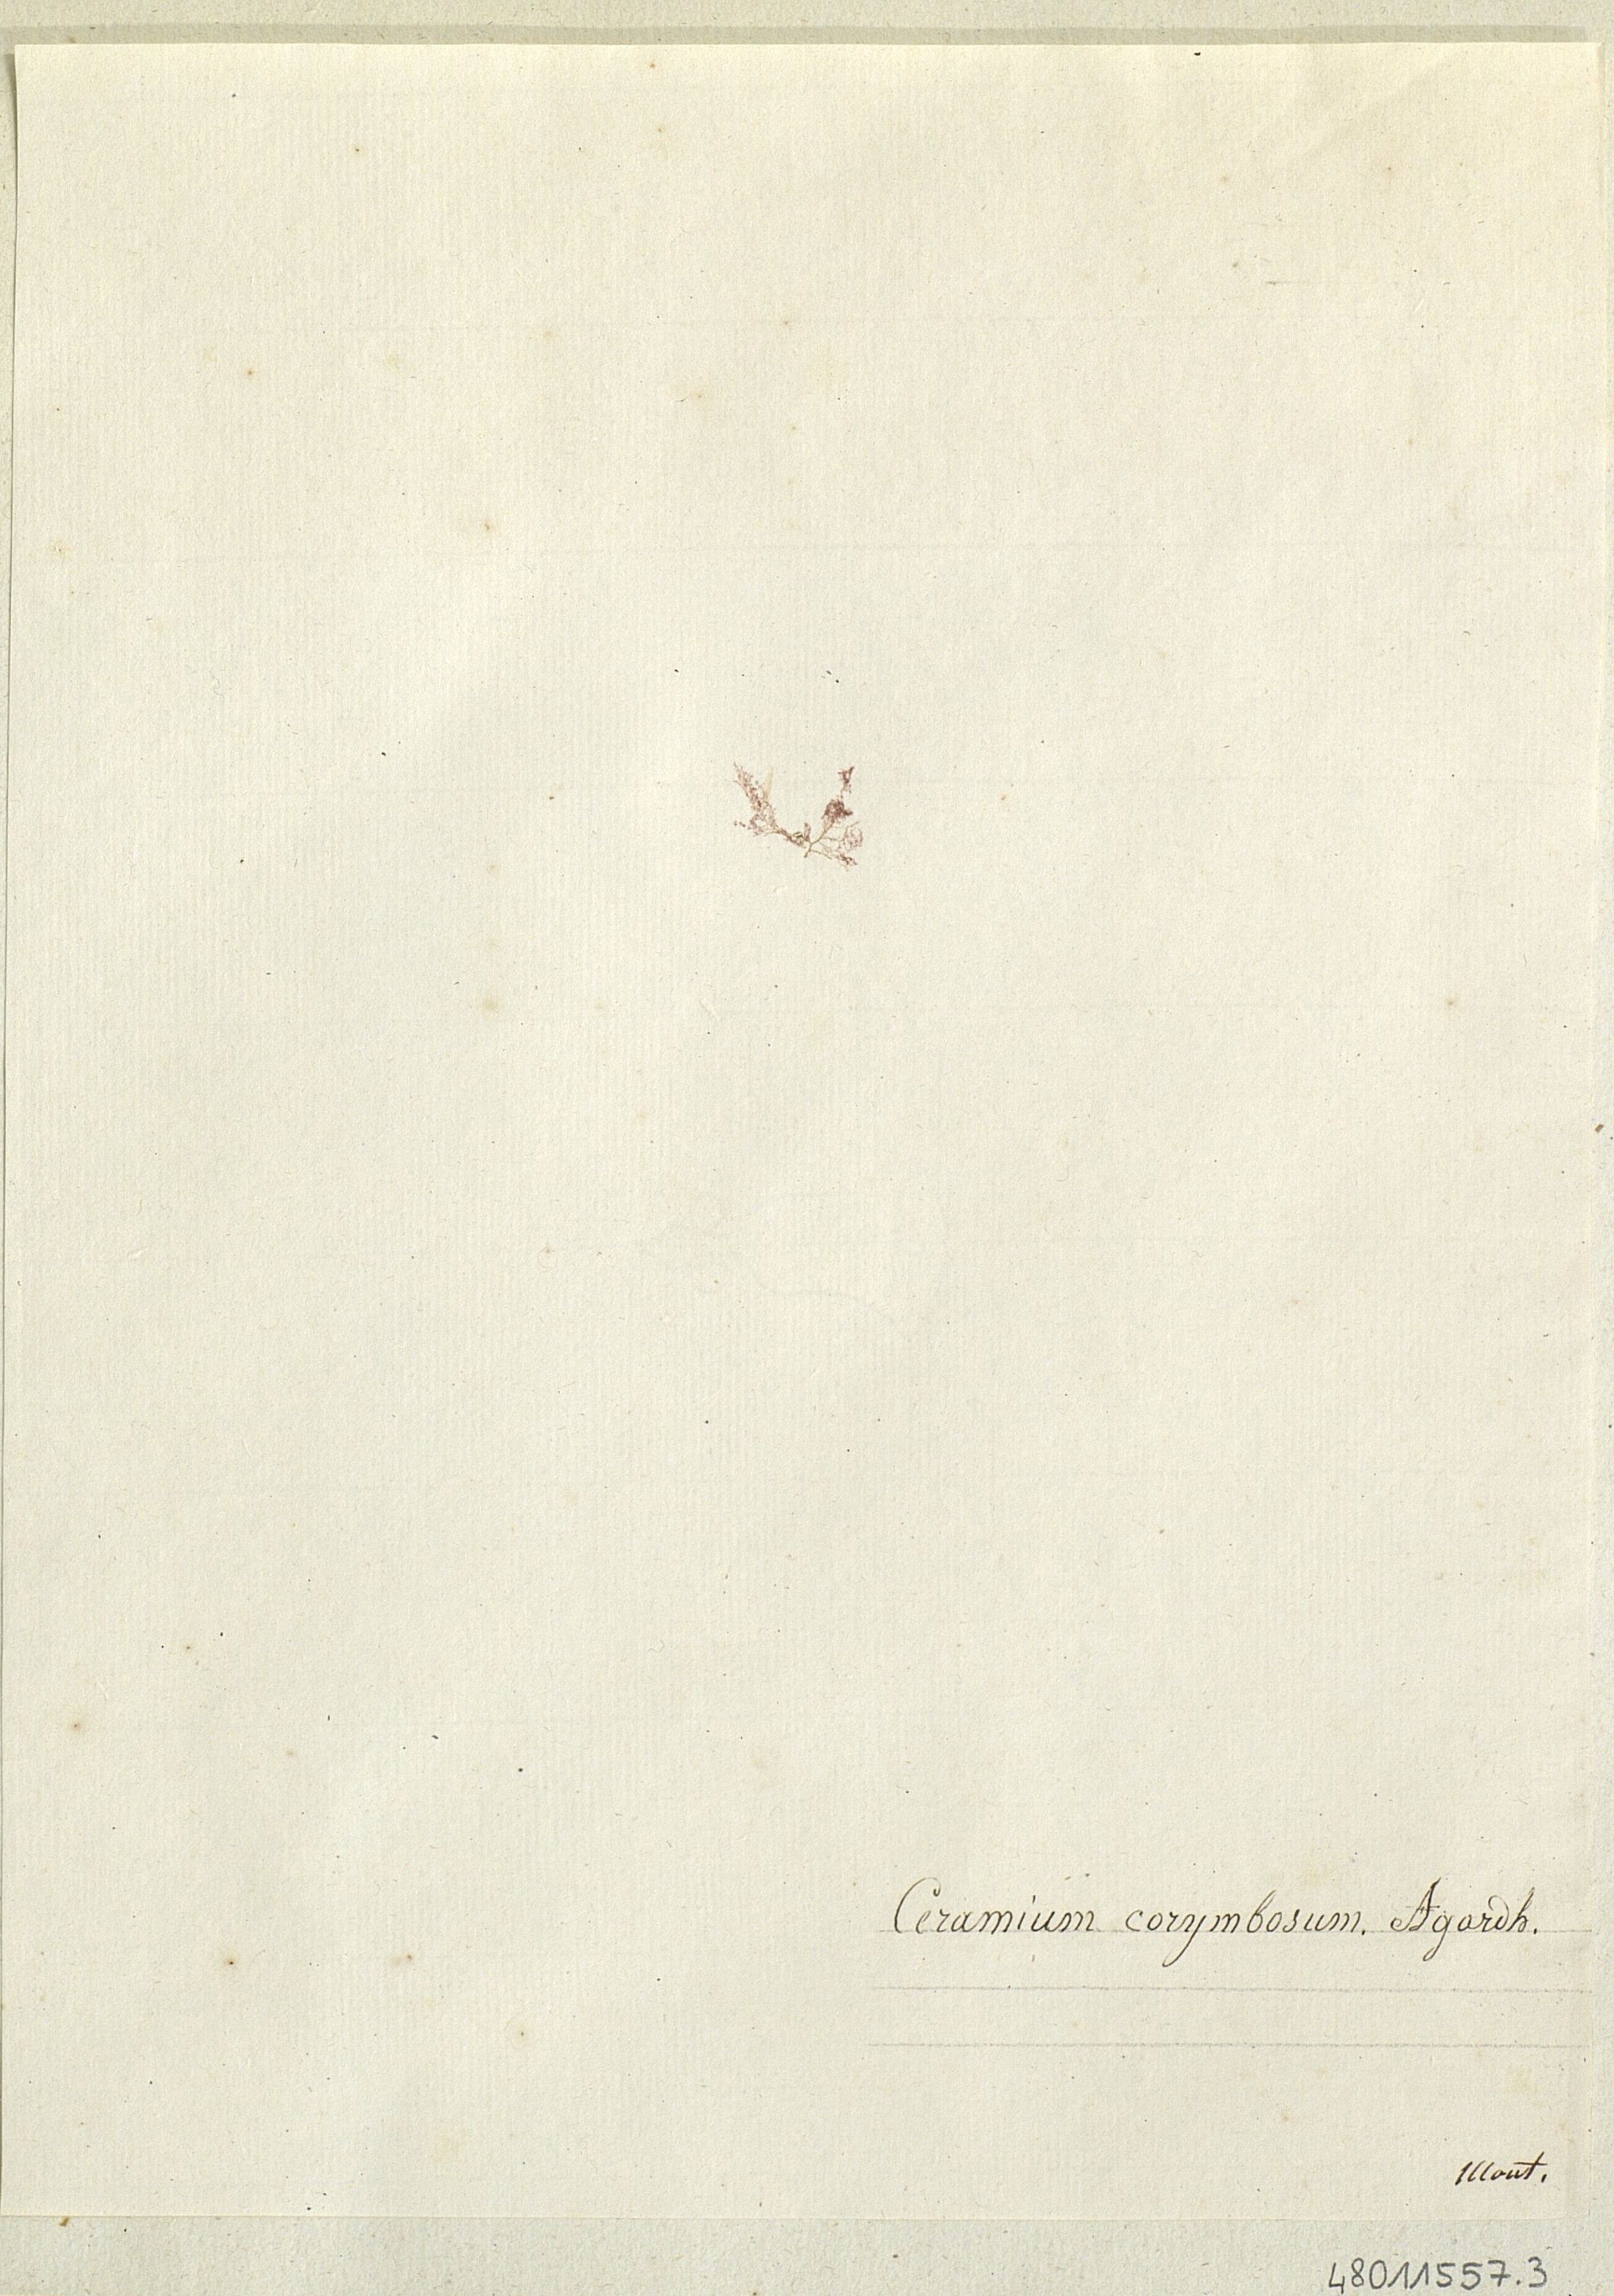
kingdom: Plantae
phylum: Rhodophyta
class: Florideophyceae
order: Ceramiales
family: Ceramiaceae
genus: Ceramium
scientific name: Ceramium
